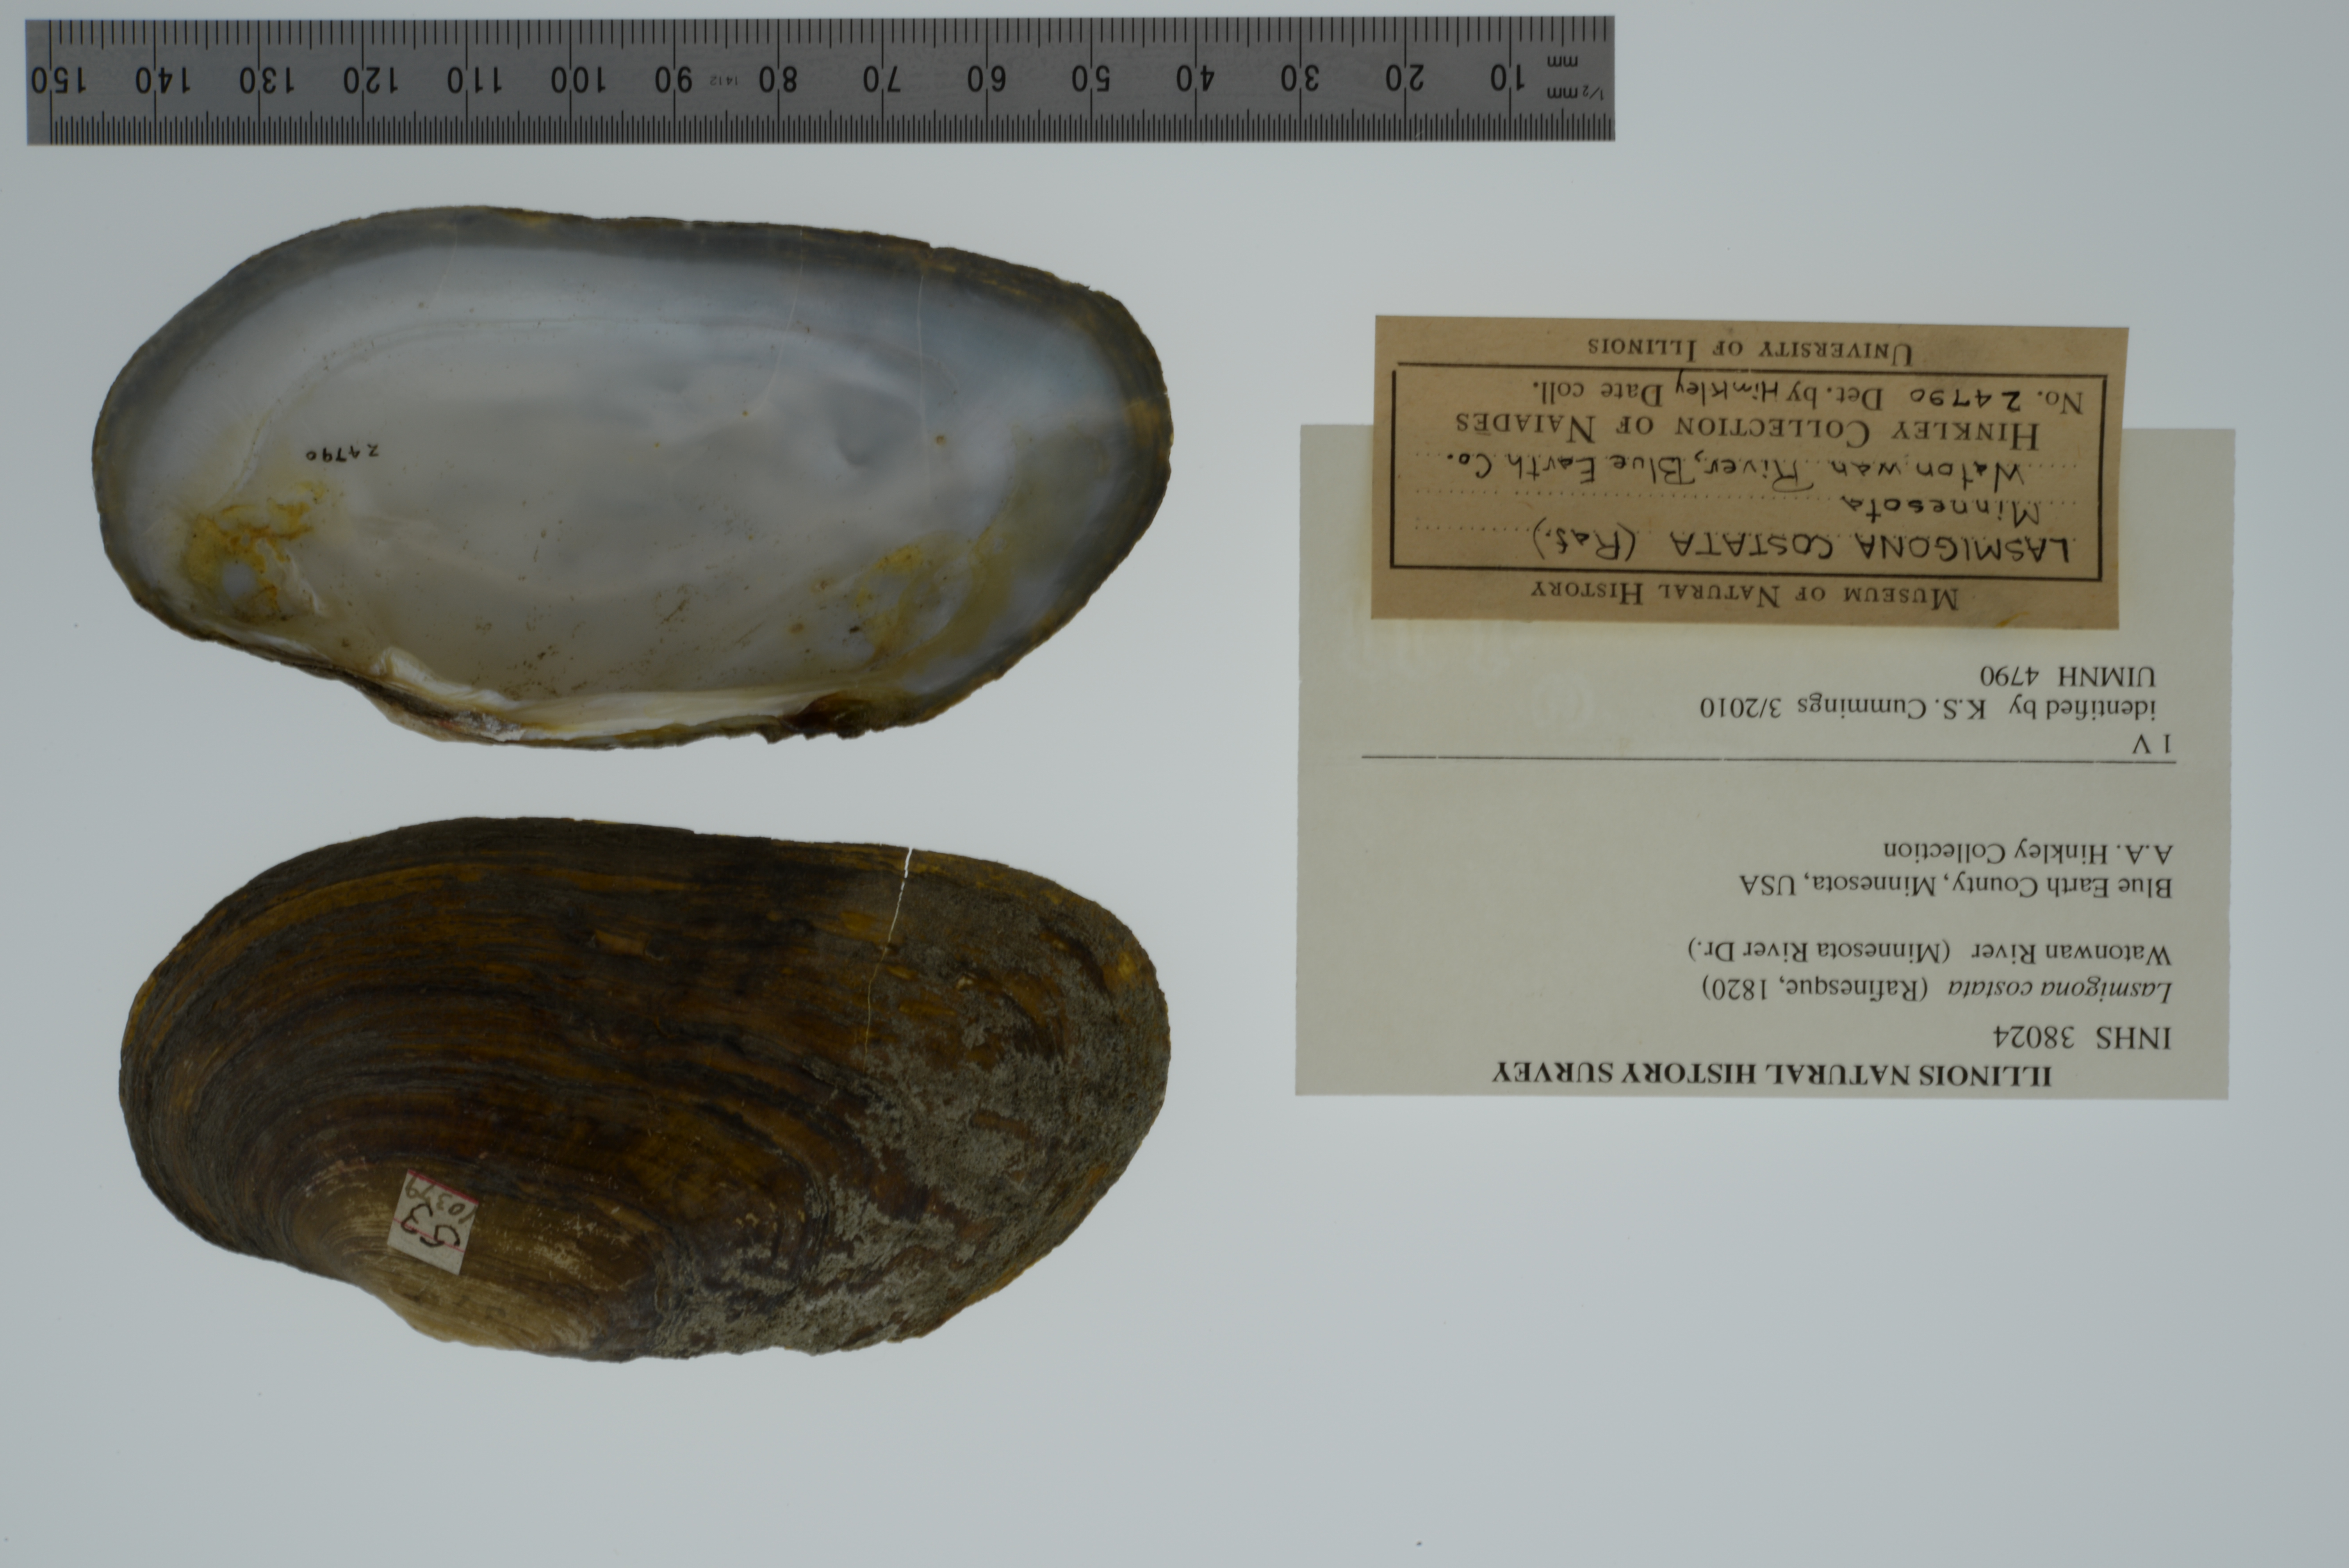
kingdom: Animalia
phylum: Mollusca
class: Bivalvia
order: Unionida
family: Unionidae
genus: Lasmigona
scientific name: Lasmigona costata
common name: Flutedshell
